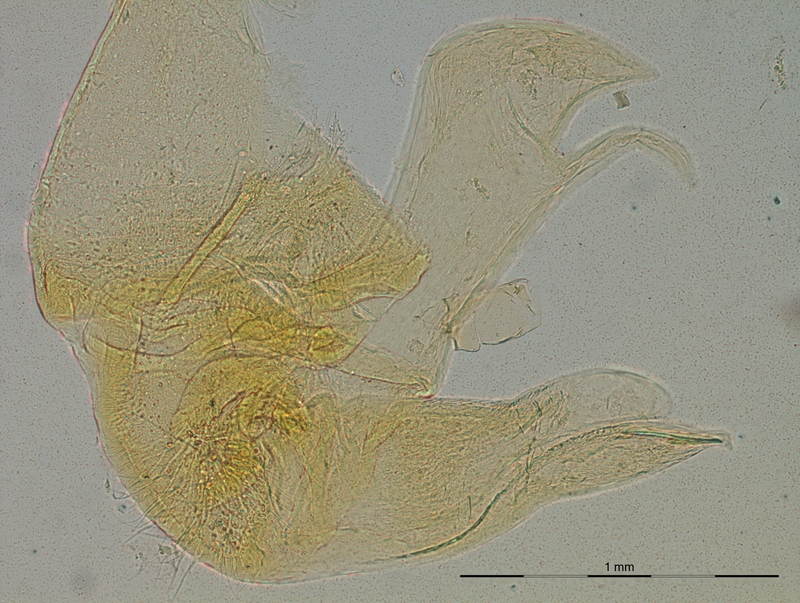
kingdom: Animalia
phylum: Arthropoda
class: Diplopoda
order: Polydesmida
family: Chelodesmidae
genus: Brasilodesmus
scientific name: Brasilodesmus corrugatus
